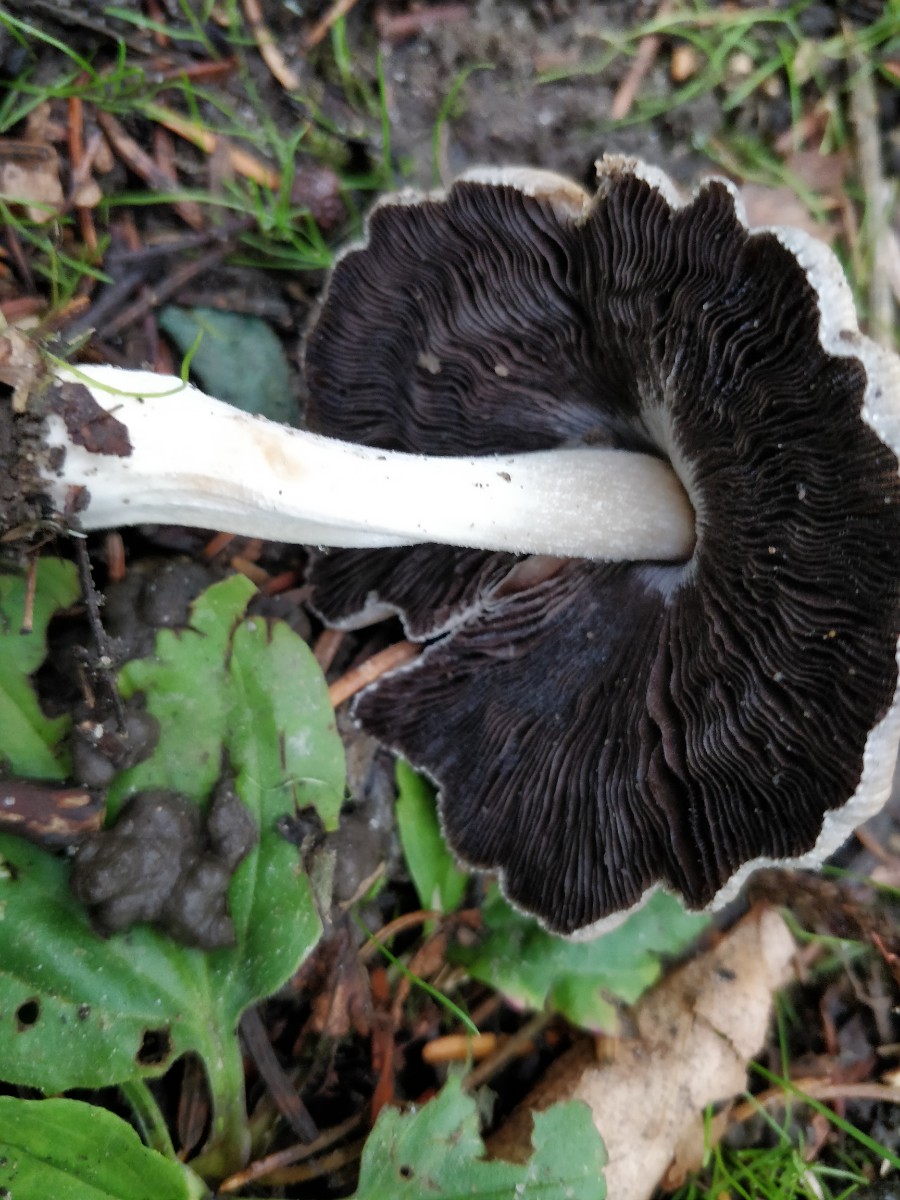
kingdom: Fungi
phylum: Basidiomycota
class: Agaricomycetes
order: Agaricales
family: Psathyrellaceae
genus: Coprinellus
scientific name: Coprinellus micaceus
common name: glimmer-blækhat
